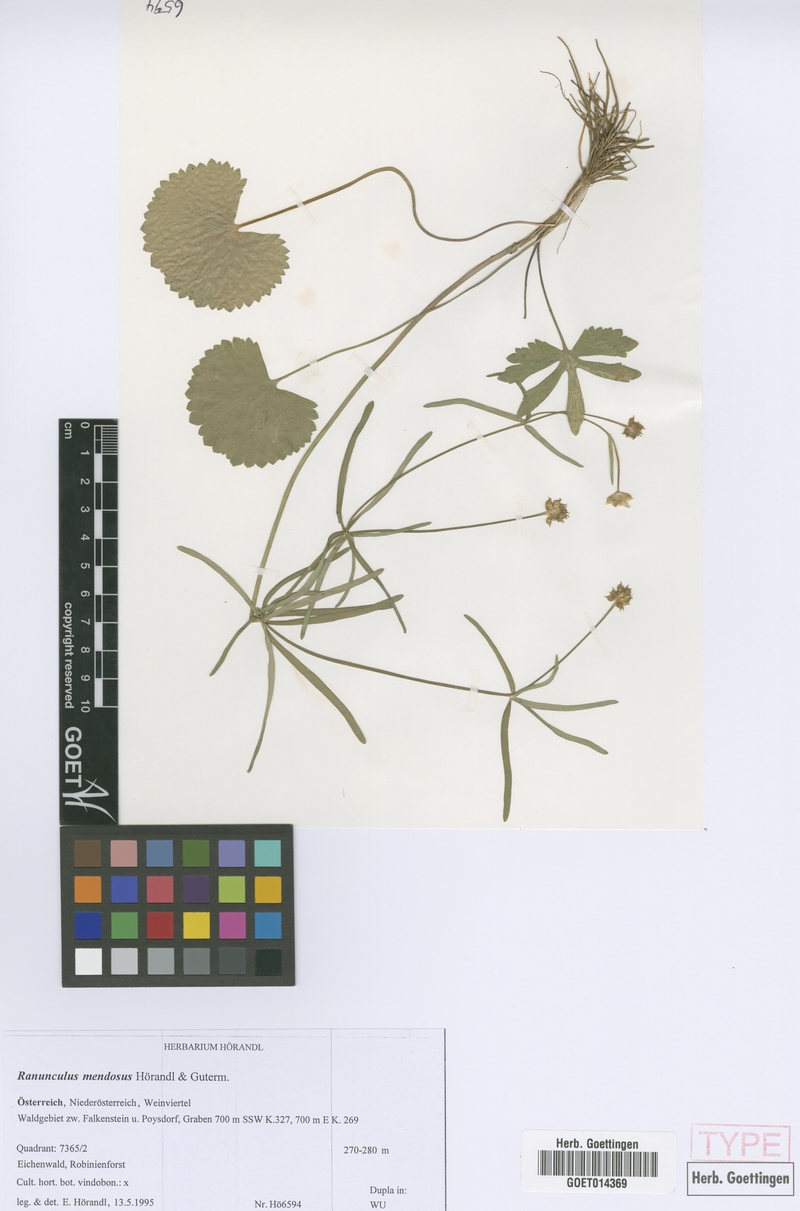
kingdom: Plantae
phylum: Tracheophyta
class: Magnoliopsida
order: Ranunculales
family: Ranunculaceae
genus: Ranunculus
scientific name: Ranunculus mendosus
